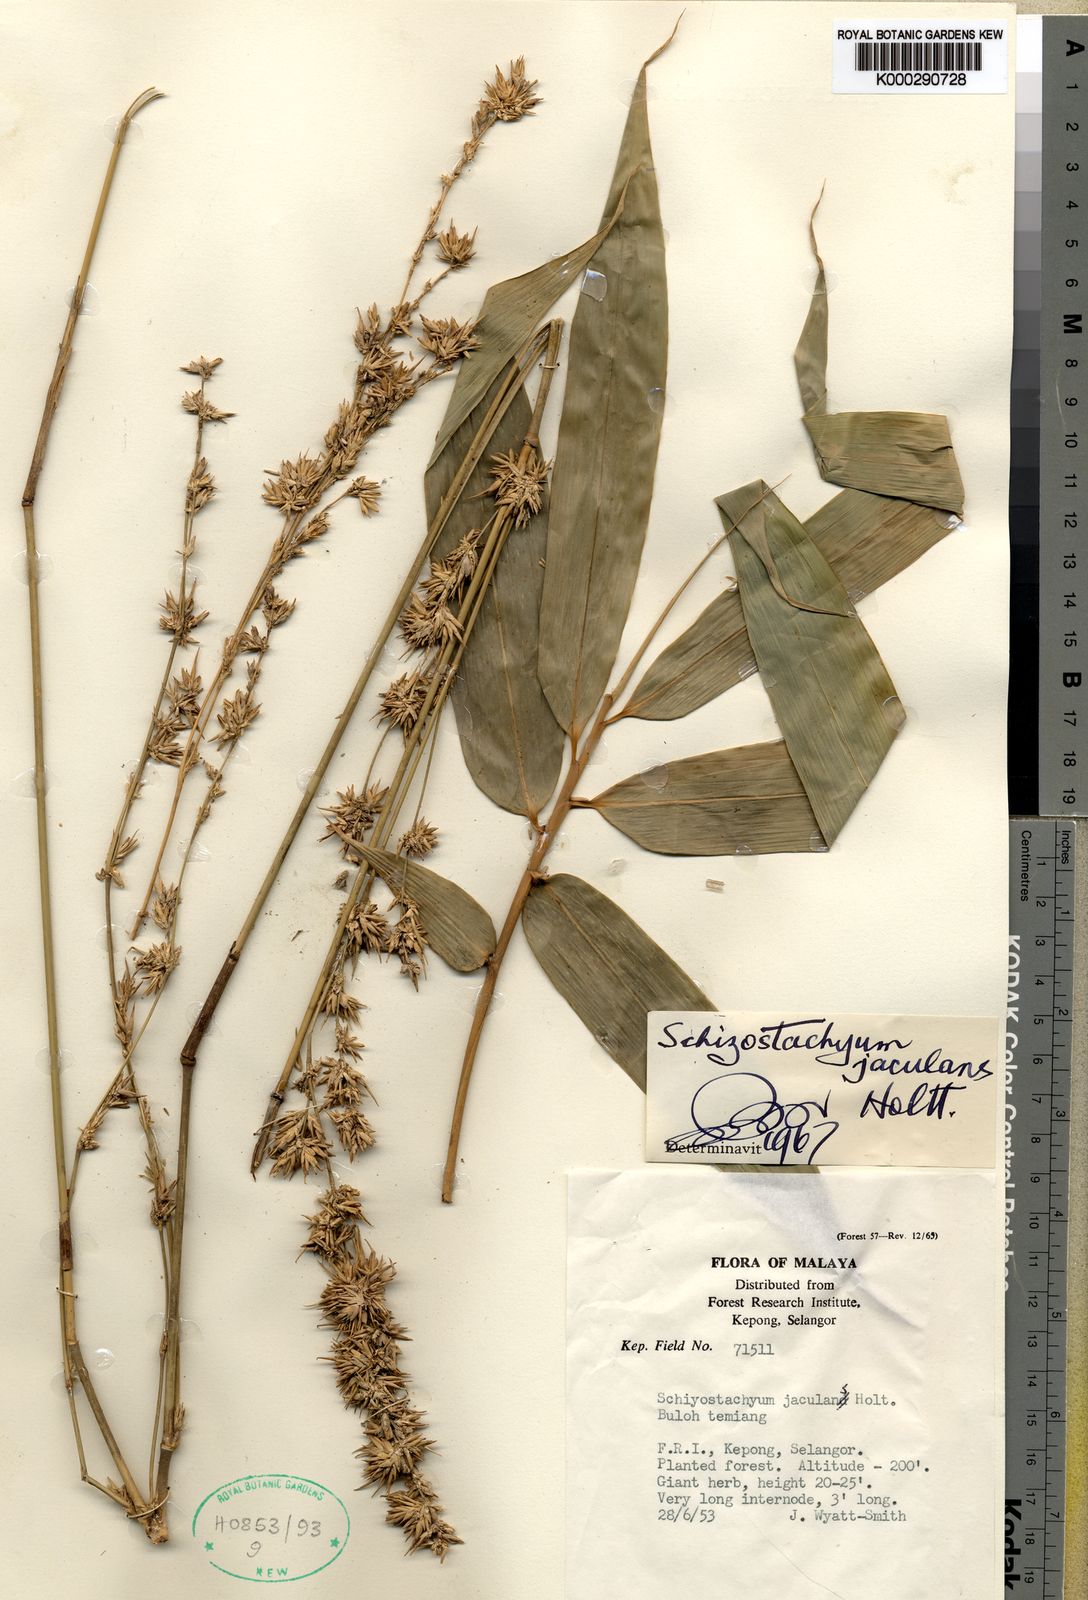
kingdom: Plantae
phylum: Tracheophyta
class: Liliopsida
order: Poales
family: Poaceae
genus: Schizostachyum
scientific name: Schizostachyum jaculans
